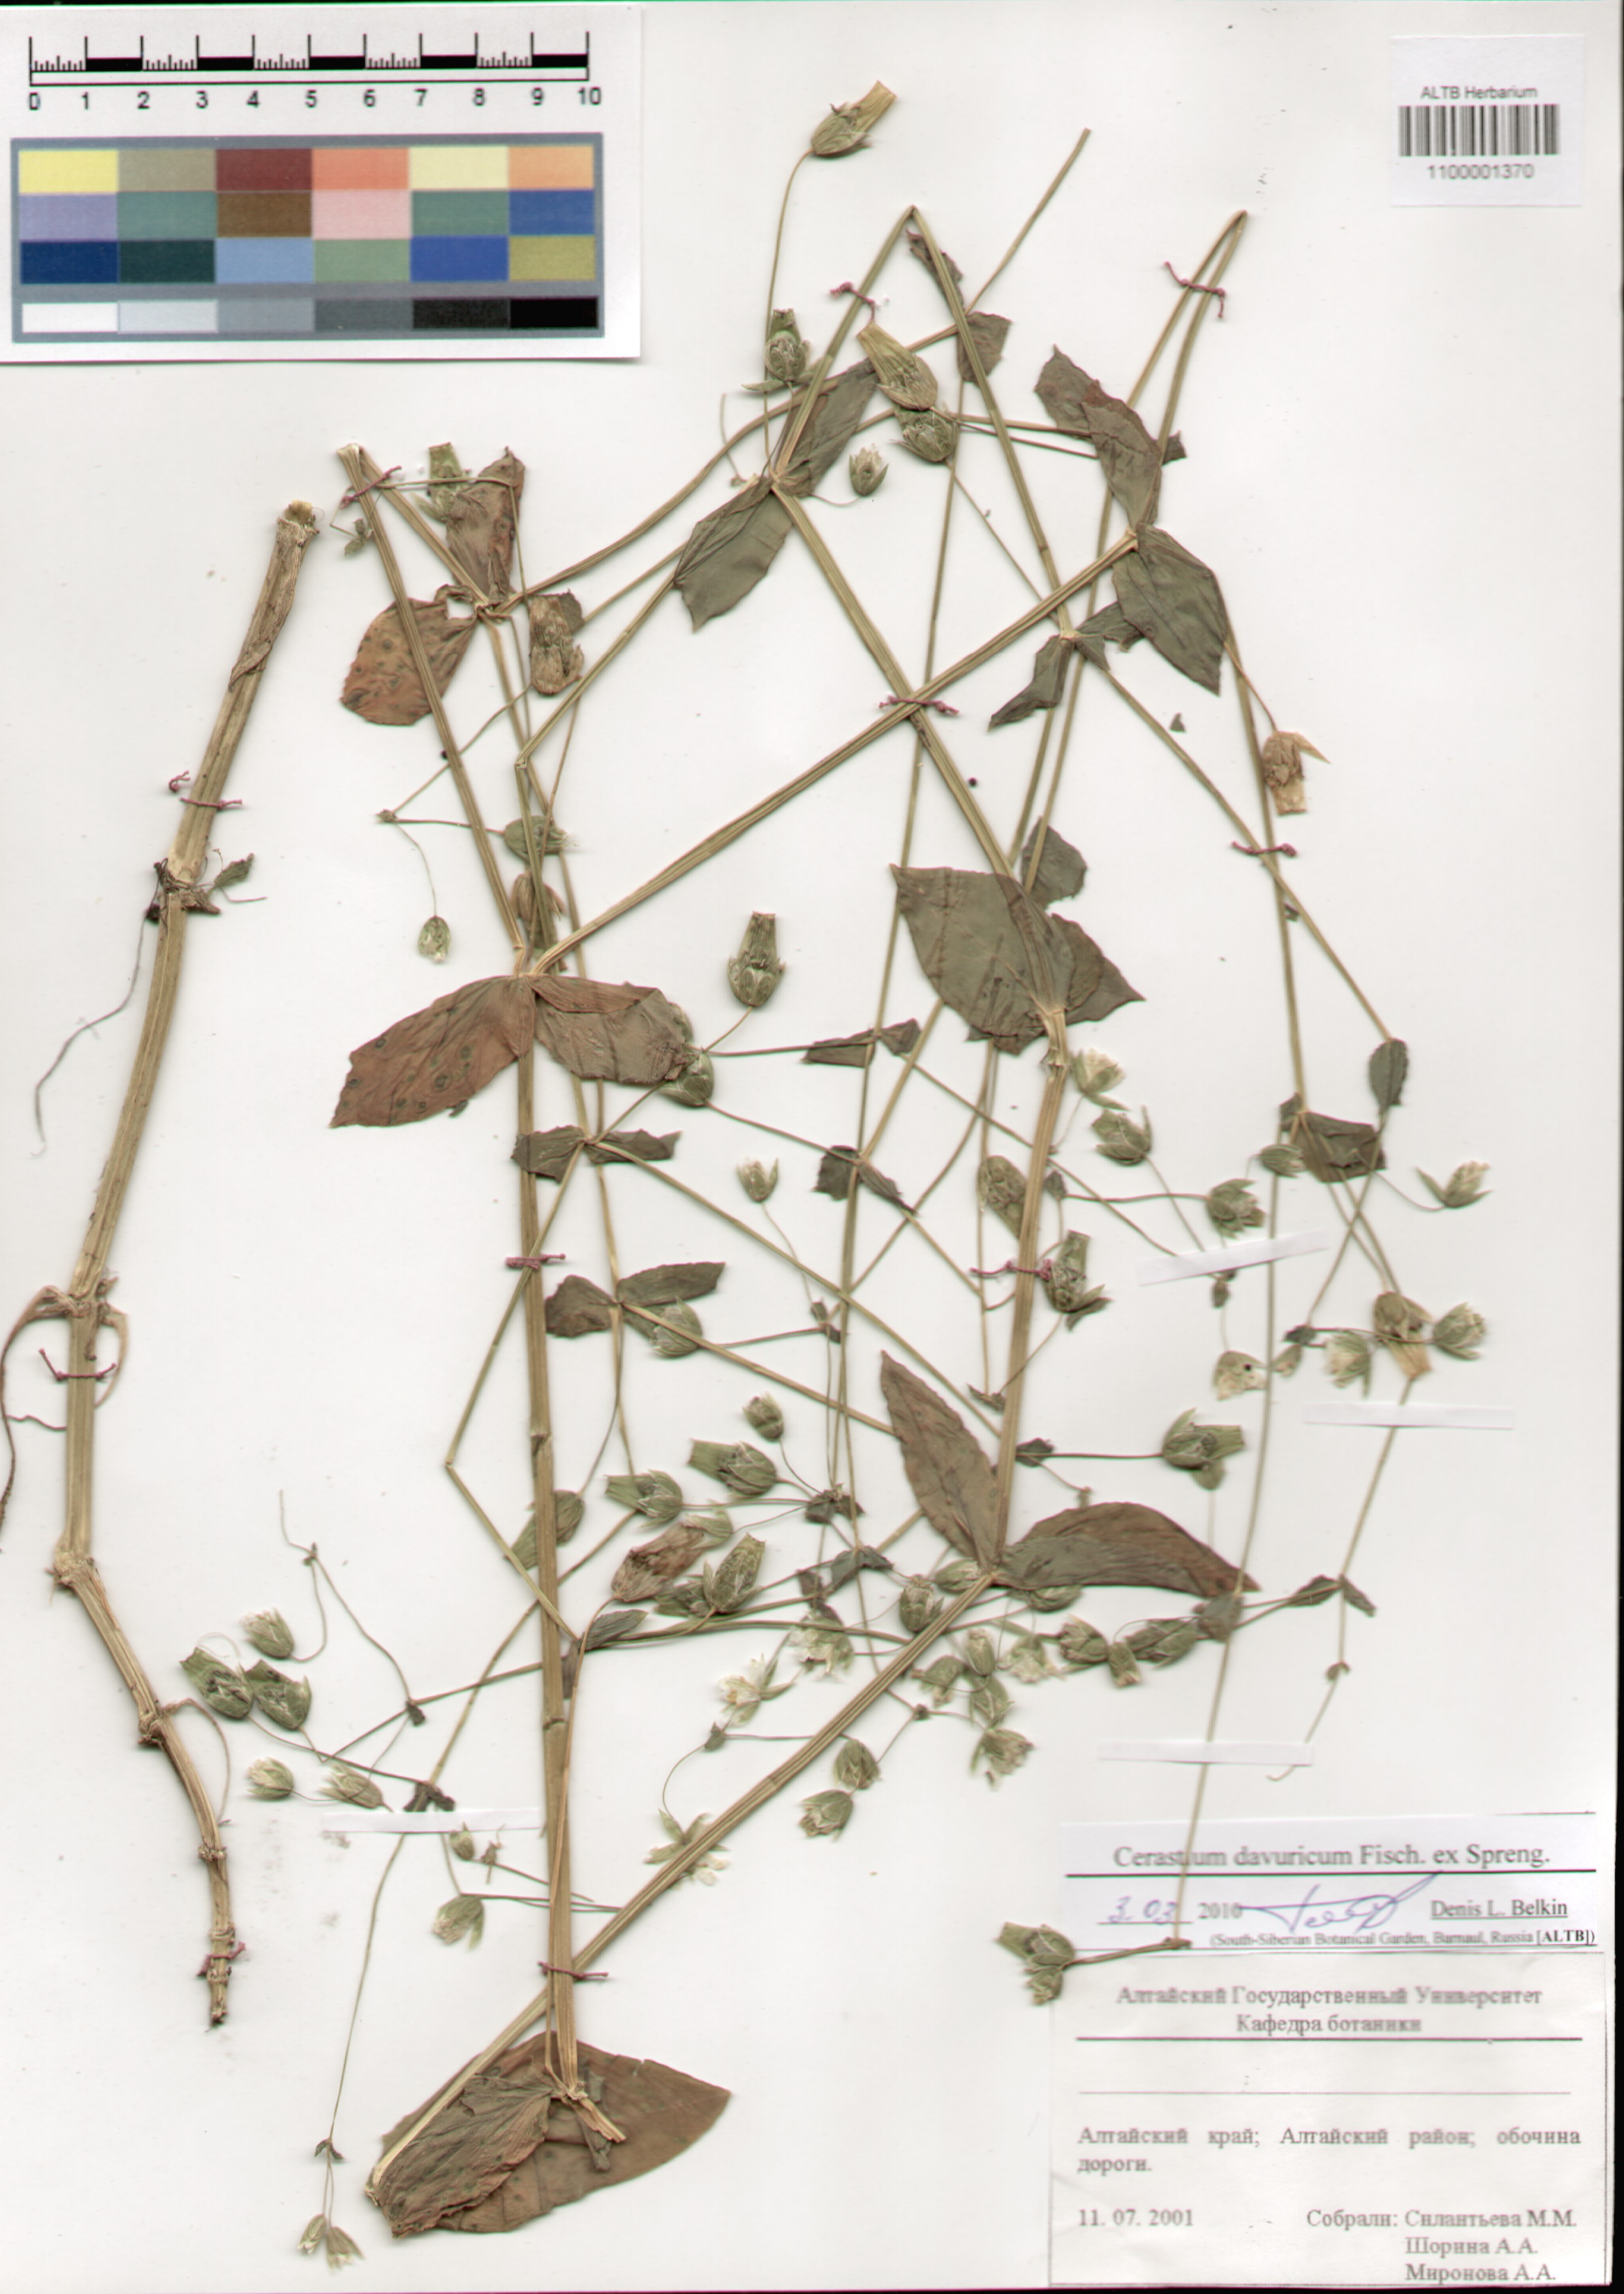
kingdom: Plantae
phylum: Tracheophyta
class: Magnoliopsida
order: Caryophyllales
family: Caryophyllaceae
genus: Dichodon
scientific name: Dichodon davuricum
